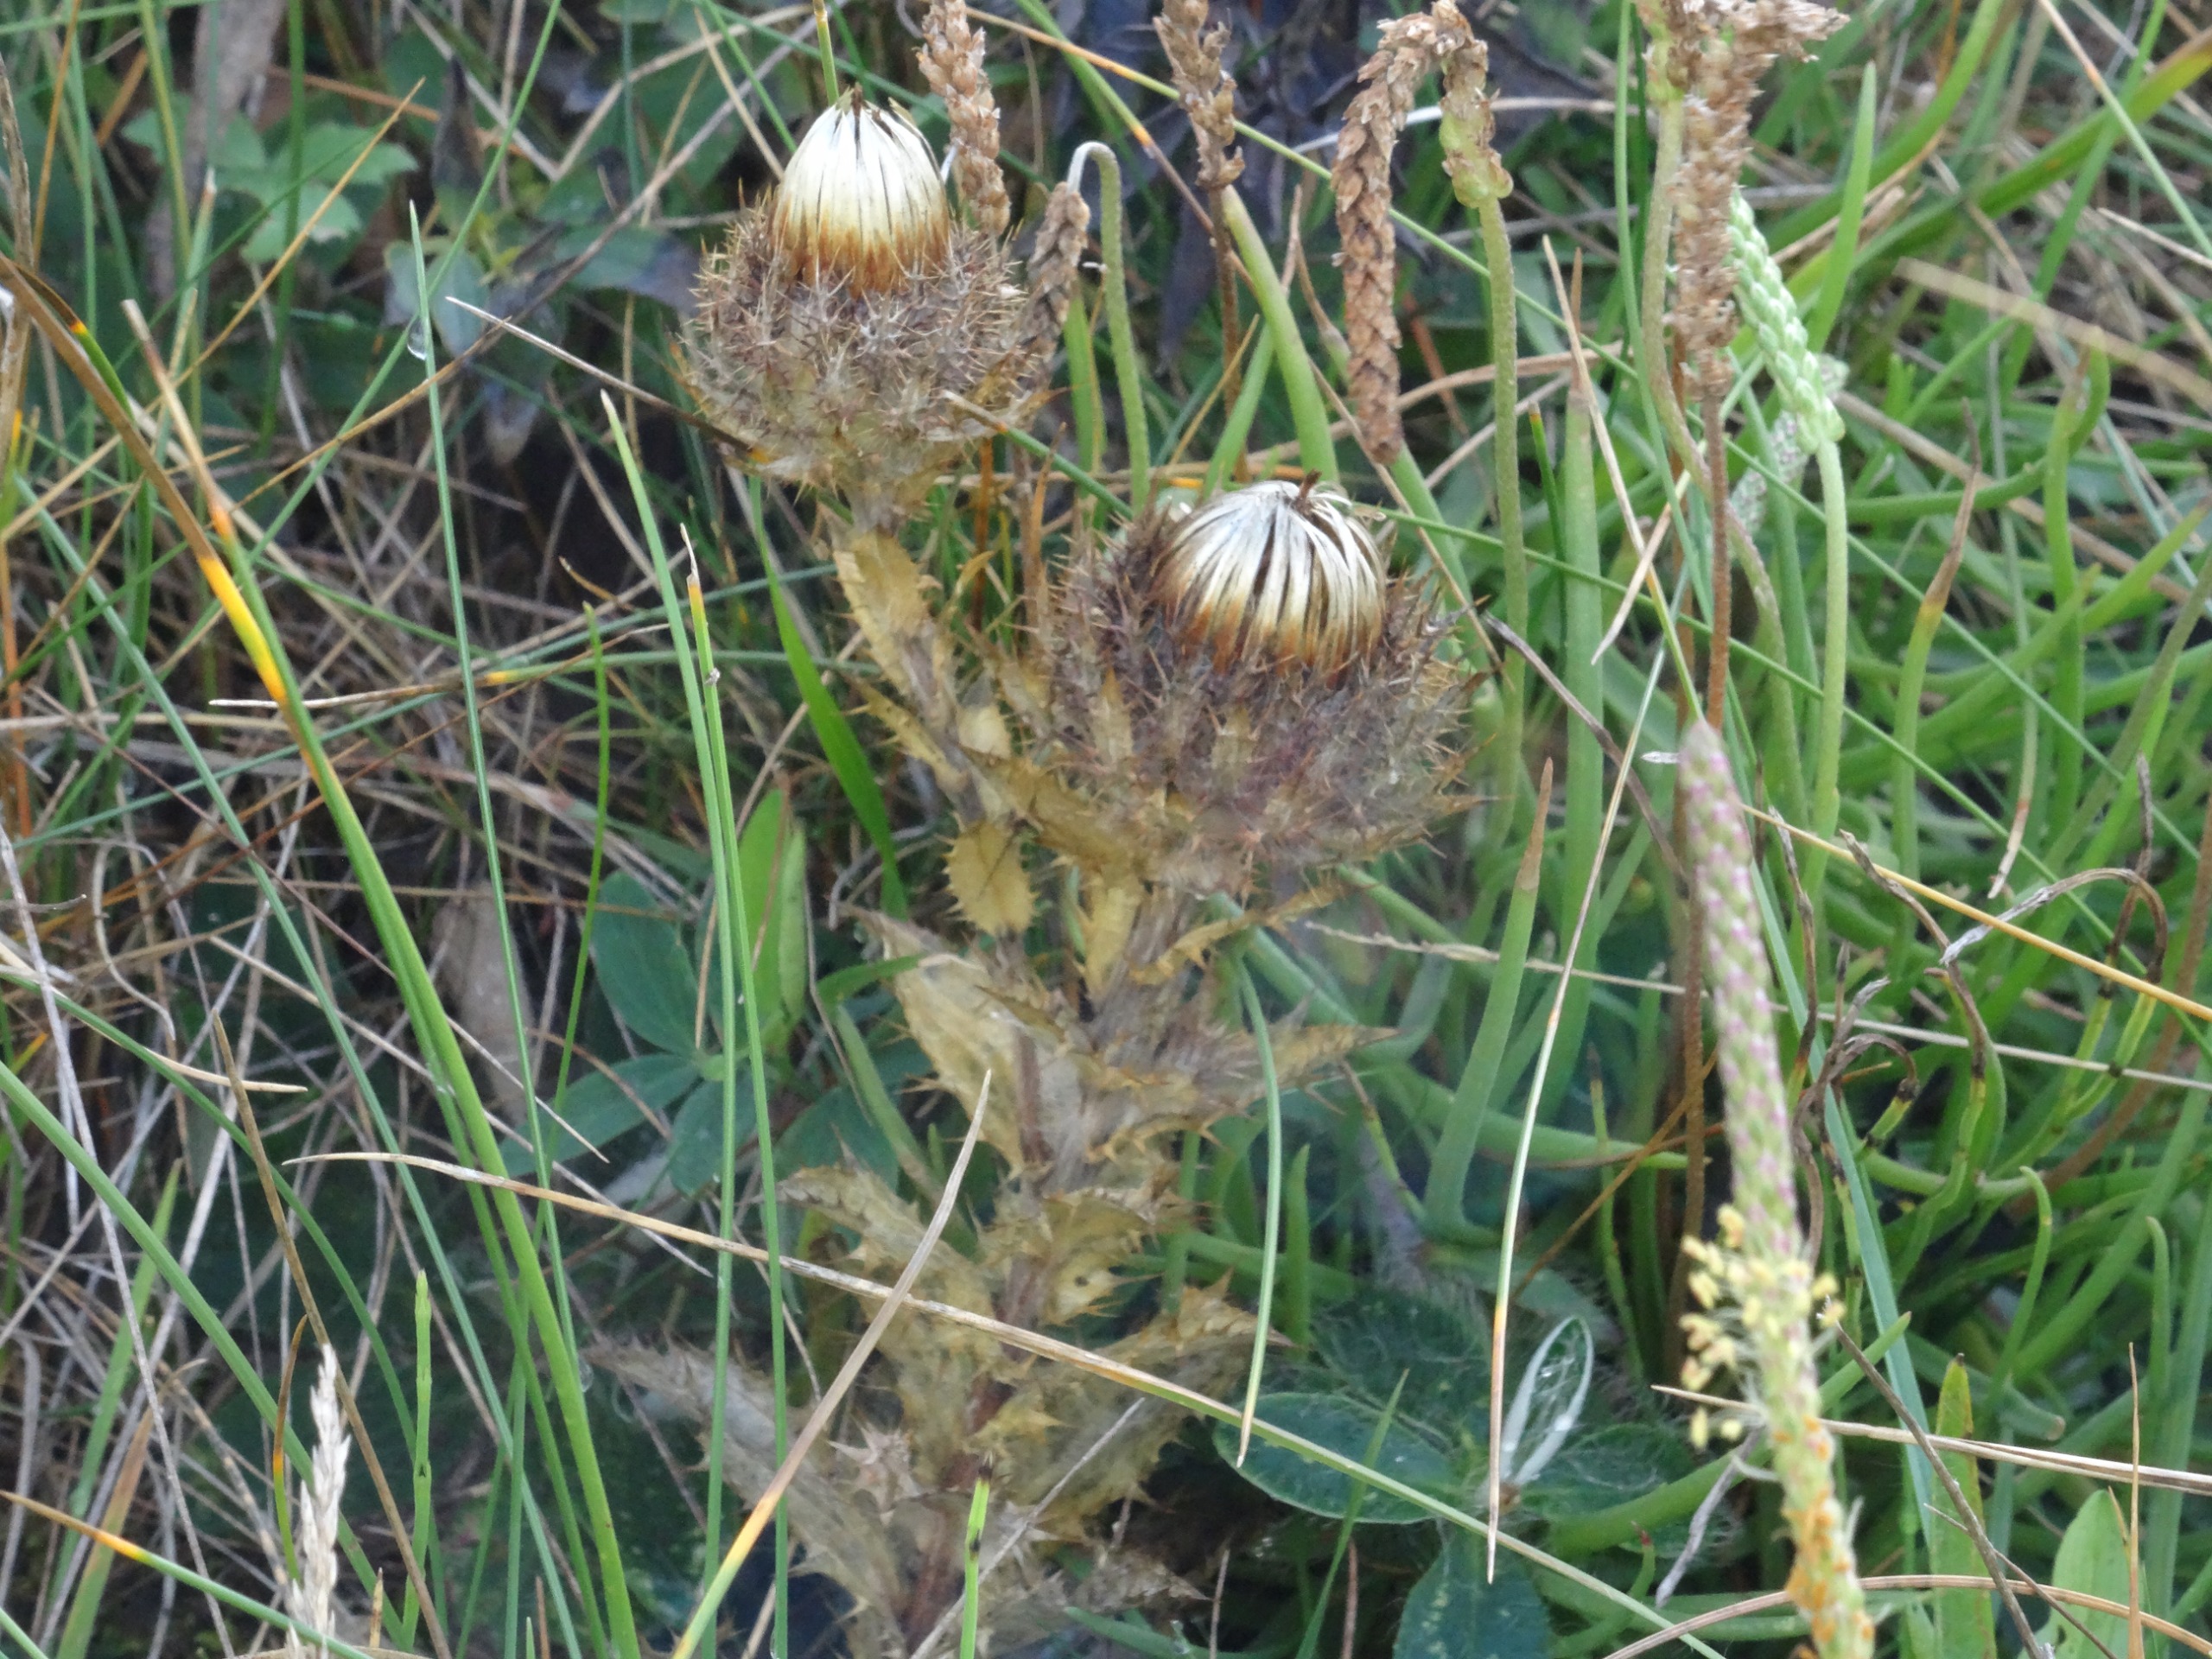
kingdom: Plantae
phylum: Tracheophyta
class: Magnoliopsida
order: Asterales
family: Asteraceae
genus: Carlina
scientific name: Carlina vulgaris
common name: Bakketidsel
